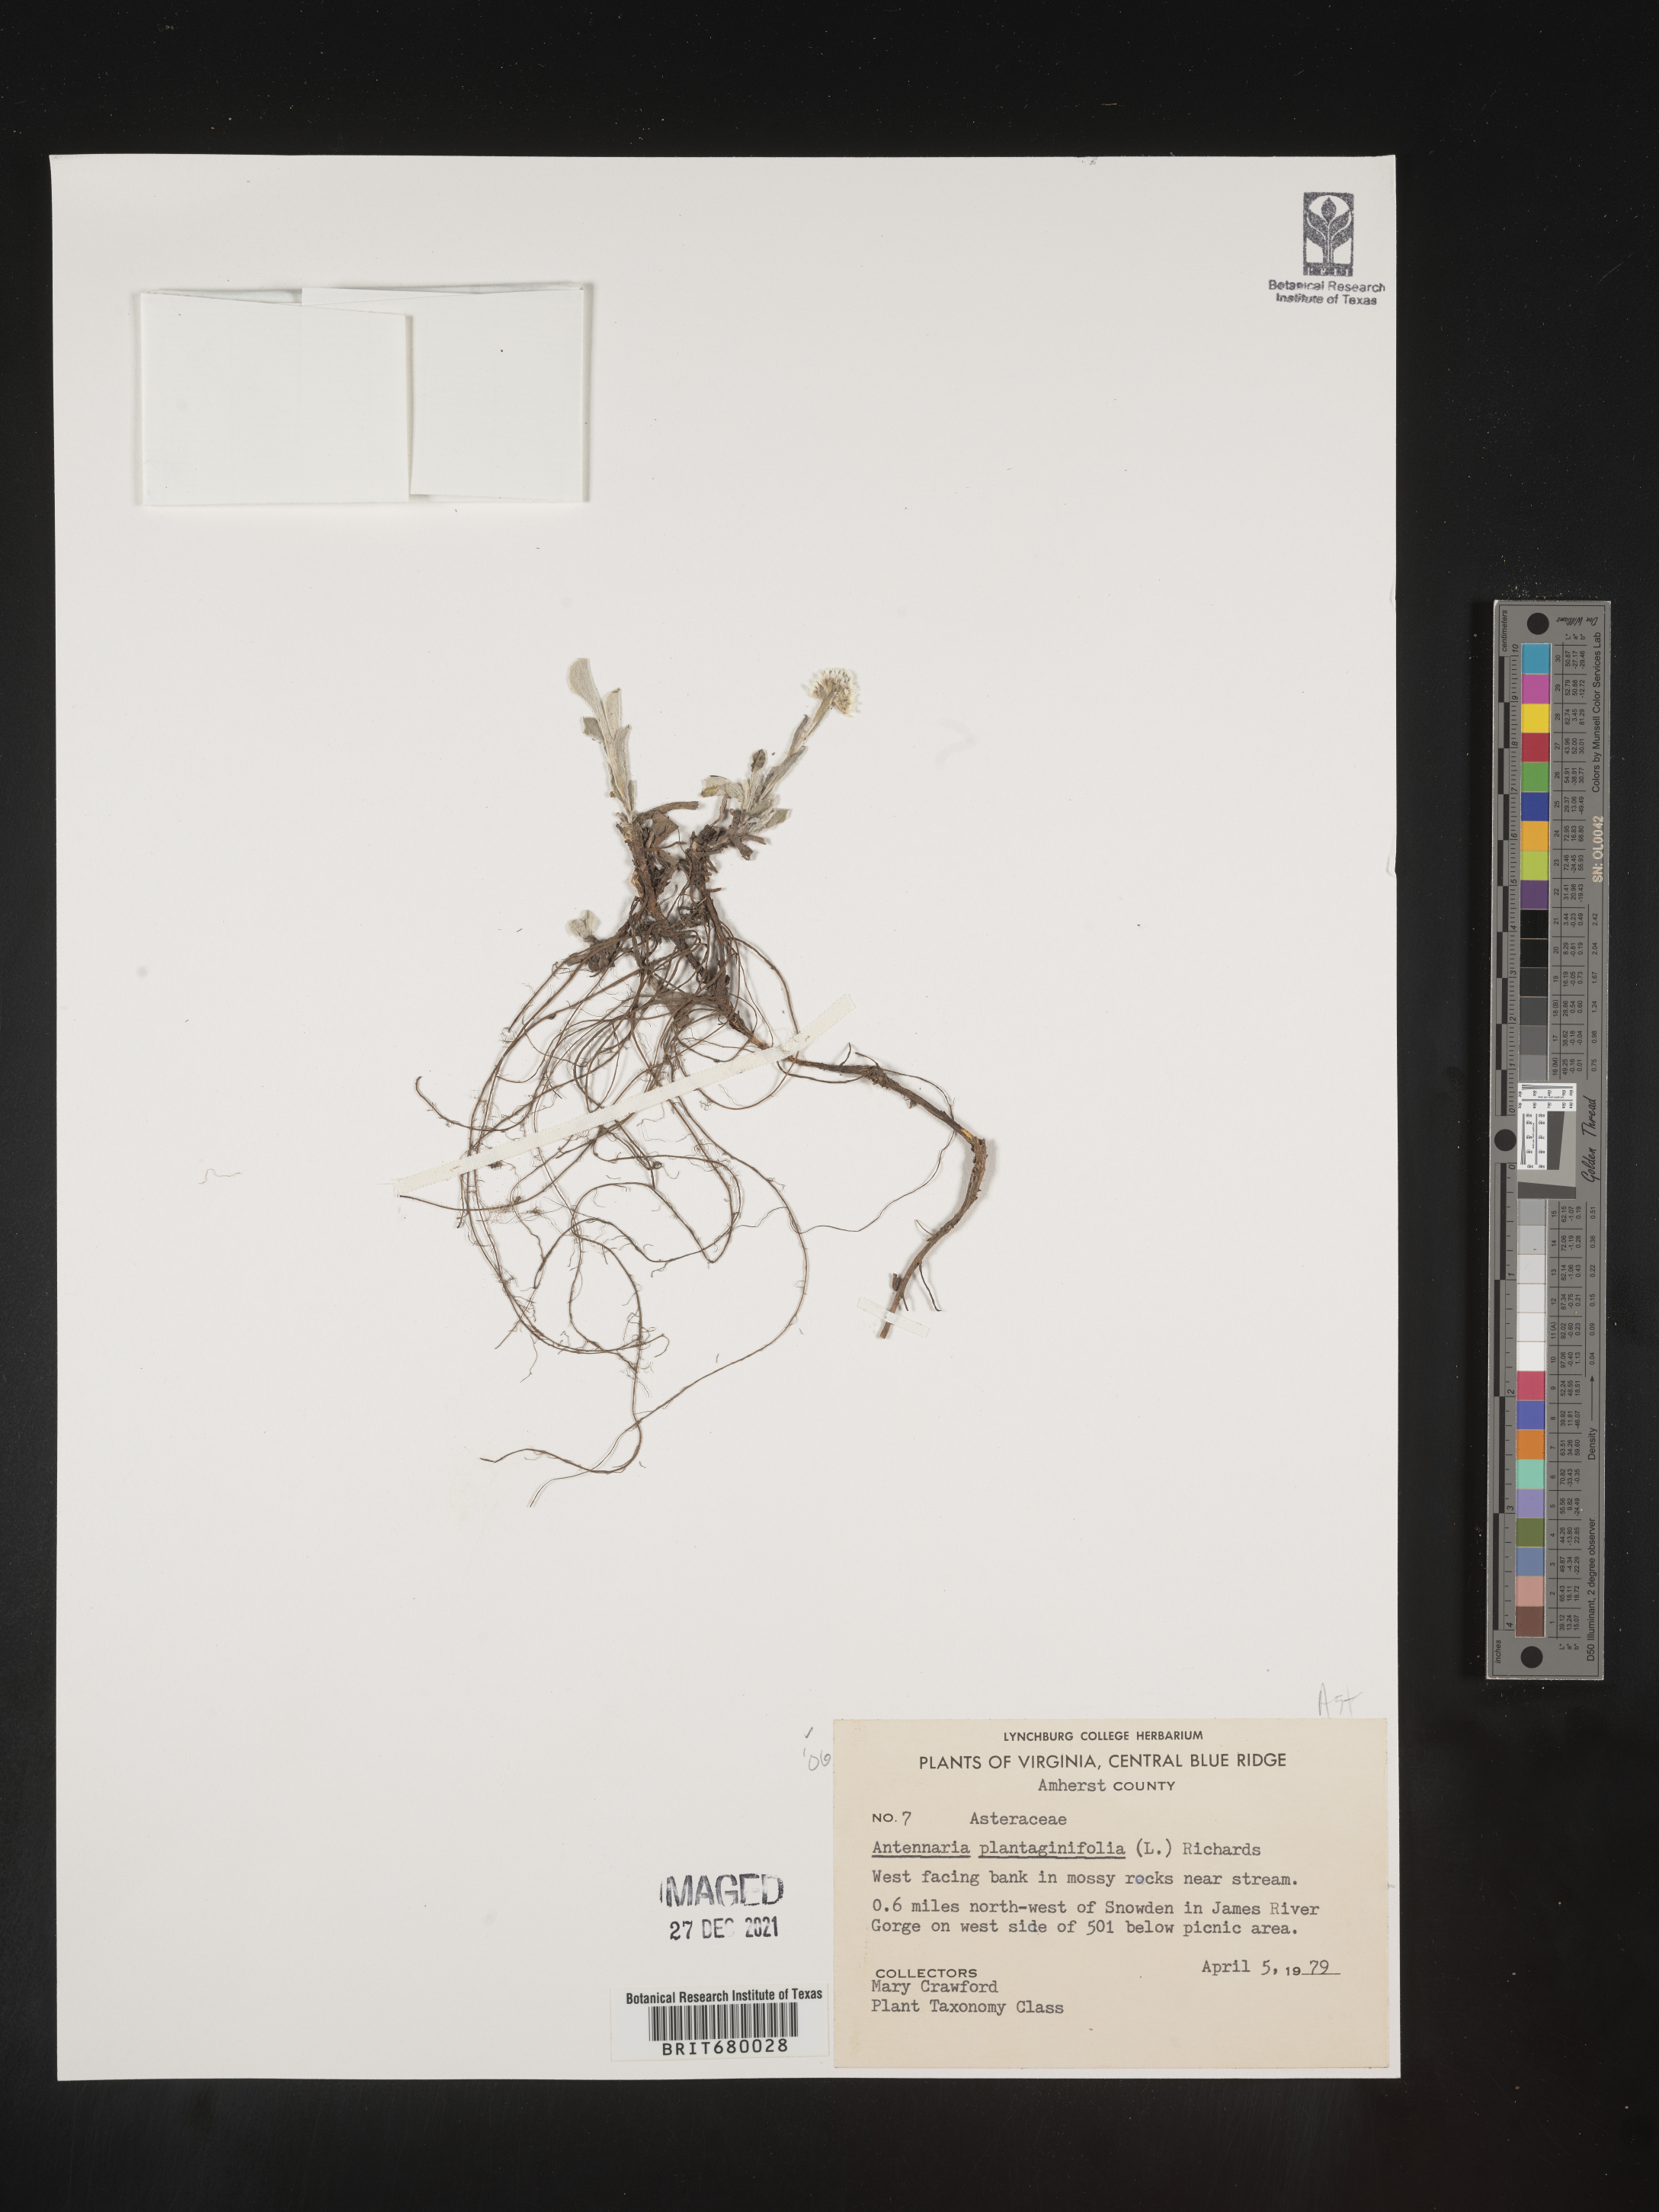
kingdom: Plantae
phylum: Tracheophyta
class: Magnoliopsida
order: Asterales
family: Asteraceae
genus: Antennaria
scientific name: Antennaria plantaginifolia
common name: Plantain-leaved pussytoes
